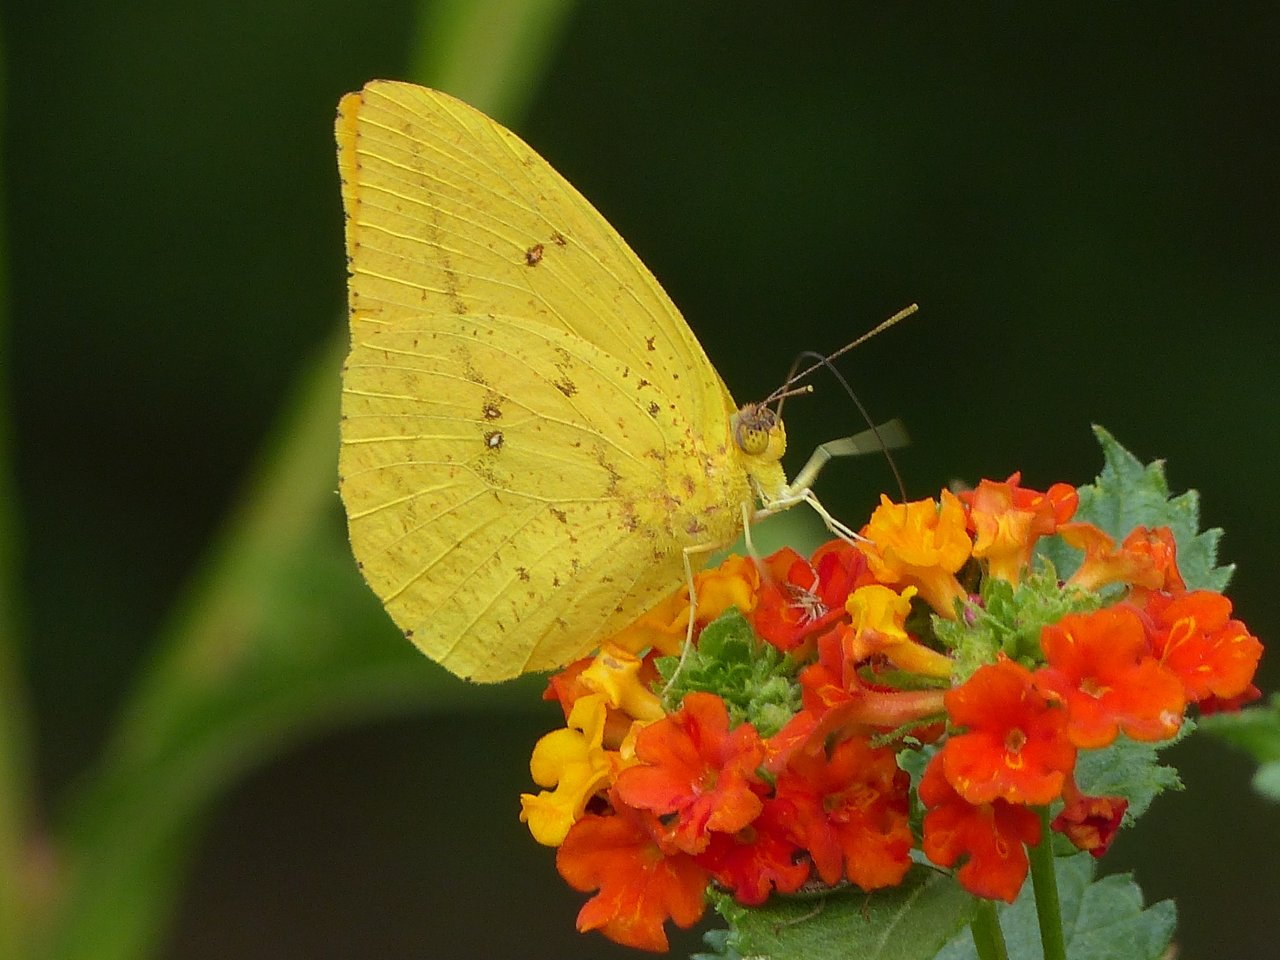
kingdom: Animalia
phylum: Arthropoda
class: Insecta
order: Lepidoptera
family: Pieridae
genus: Phoebis
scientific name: Phoebis agarithe
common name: Large Orange Sulphur
